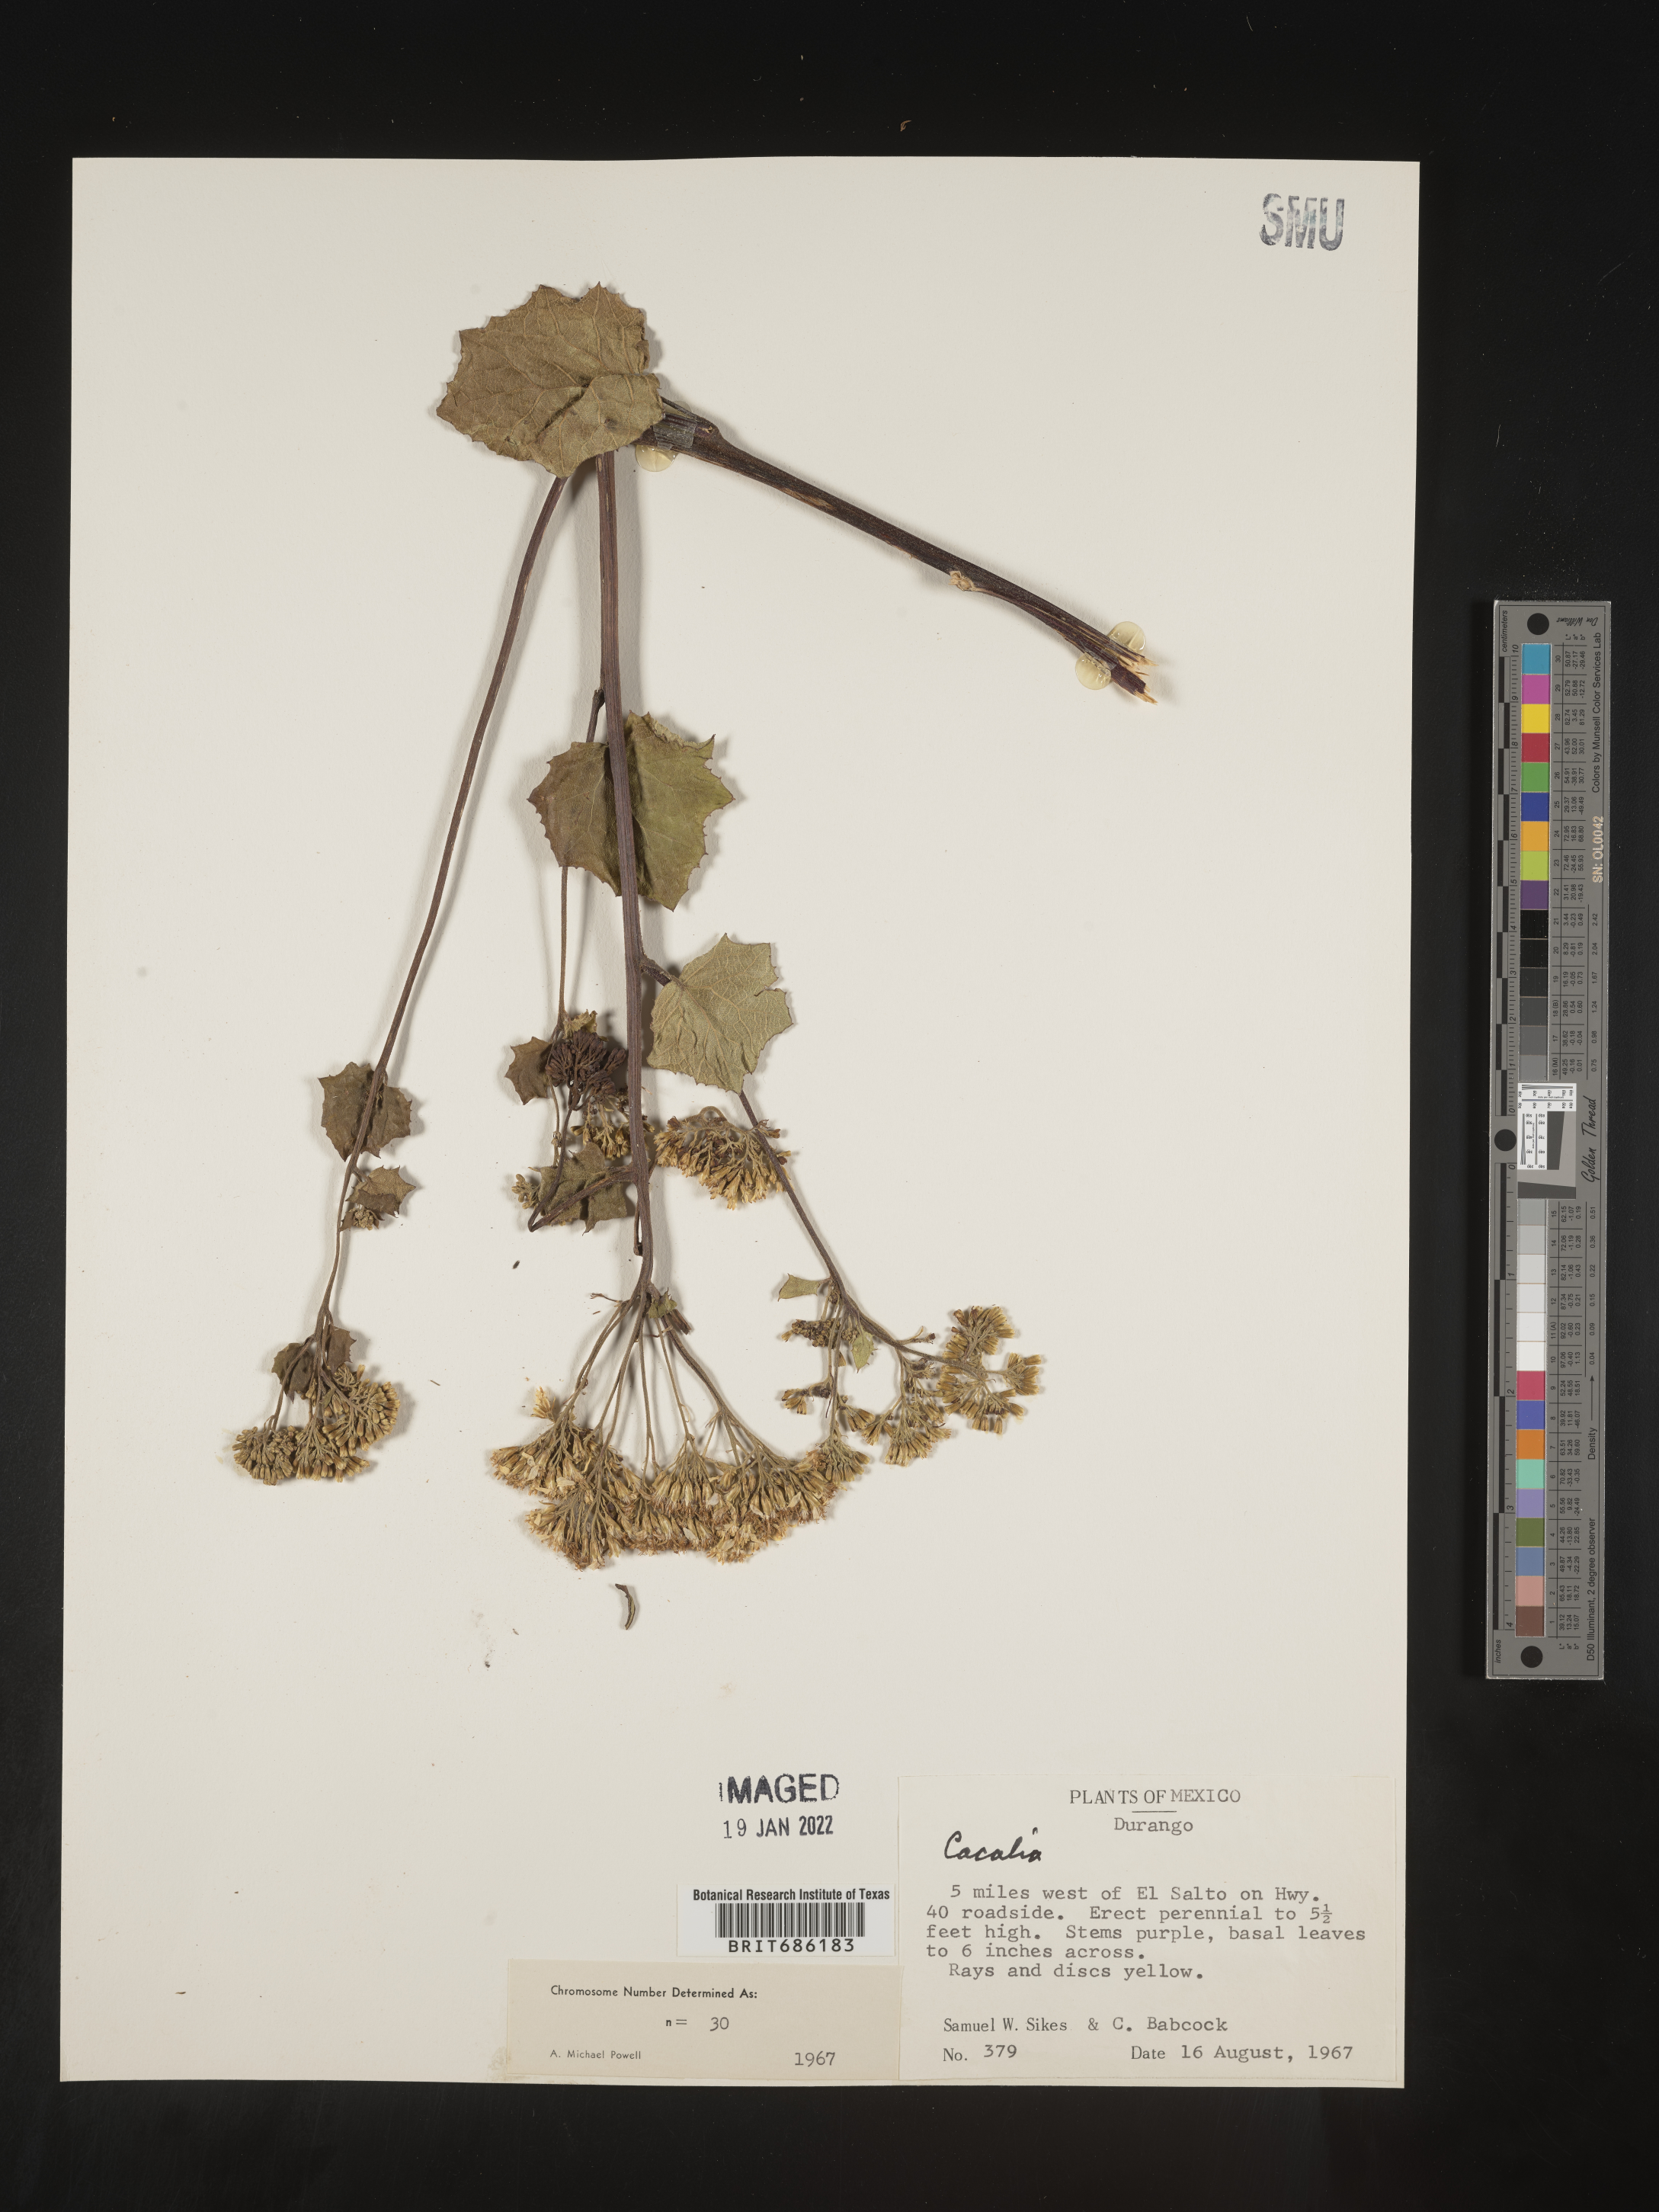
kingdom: Plantae
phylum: Tracheophyta
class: Magnoliopsida
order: Asterales
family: Asteraceae
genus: Cacalia
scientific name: Cacalia
